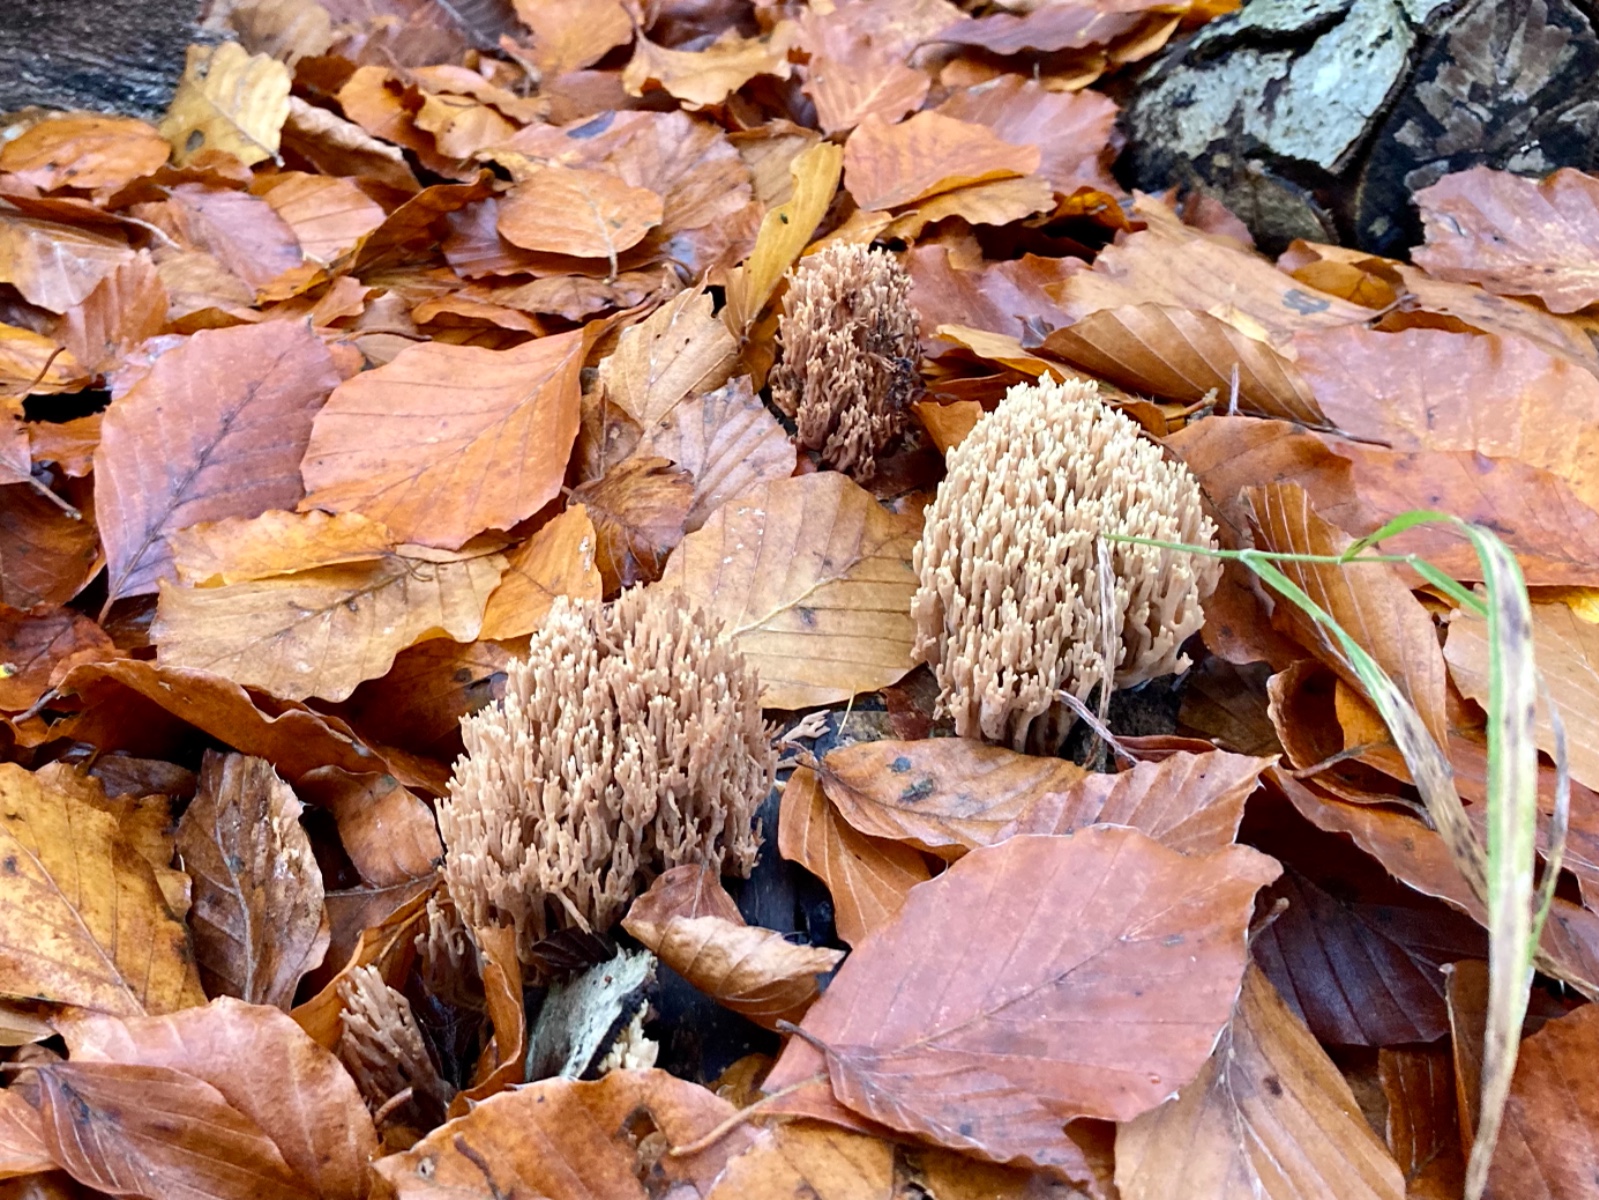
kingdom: Fungi
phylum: Basidiomycota
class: Agaricomycetes
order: Gomphales
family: Gomphaceae
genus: Ramaria
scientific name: Ramaria stricta
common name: rank koralsvamp
